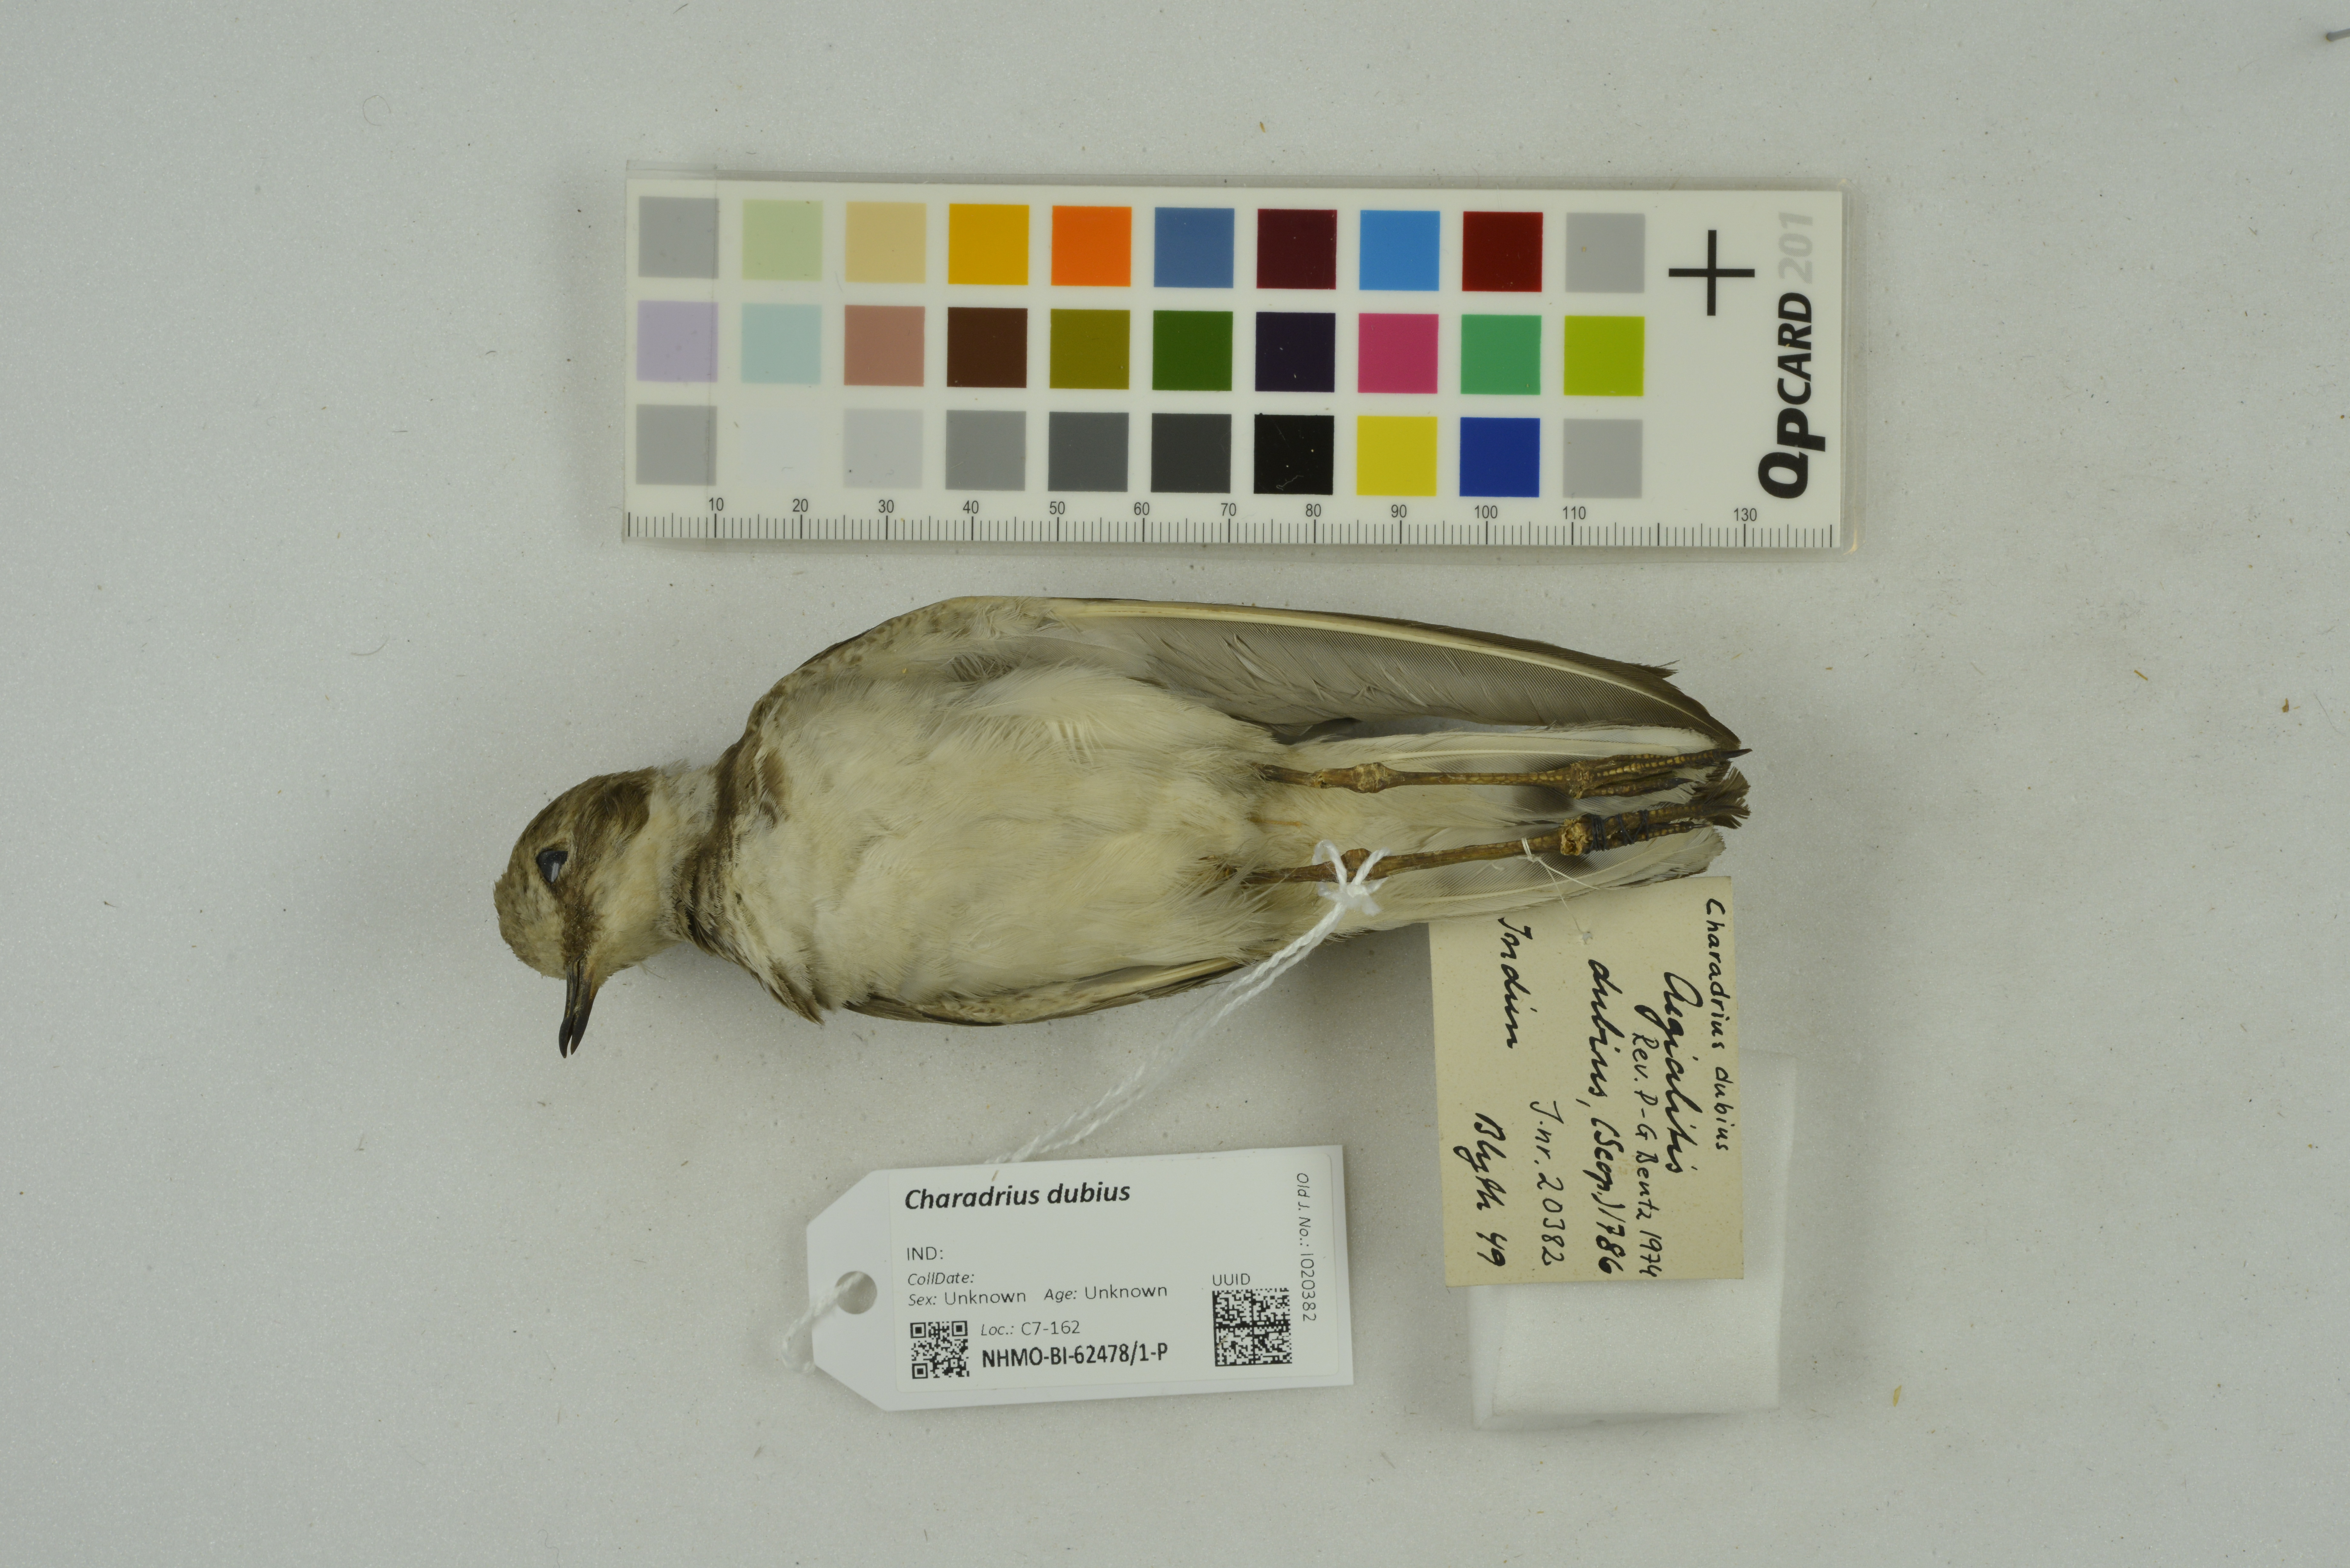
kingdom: Animalia
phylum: Chordata
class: Aves
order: Charadriiformes
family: Charadriidae
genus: Charadrius
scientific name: Charadrius dubius
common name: Little ringed plover
